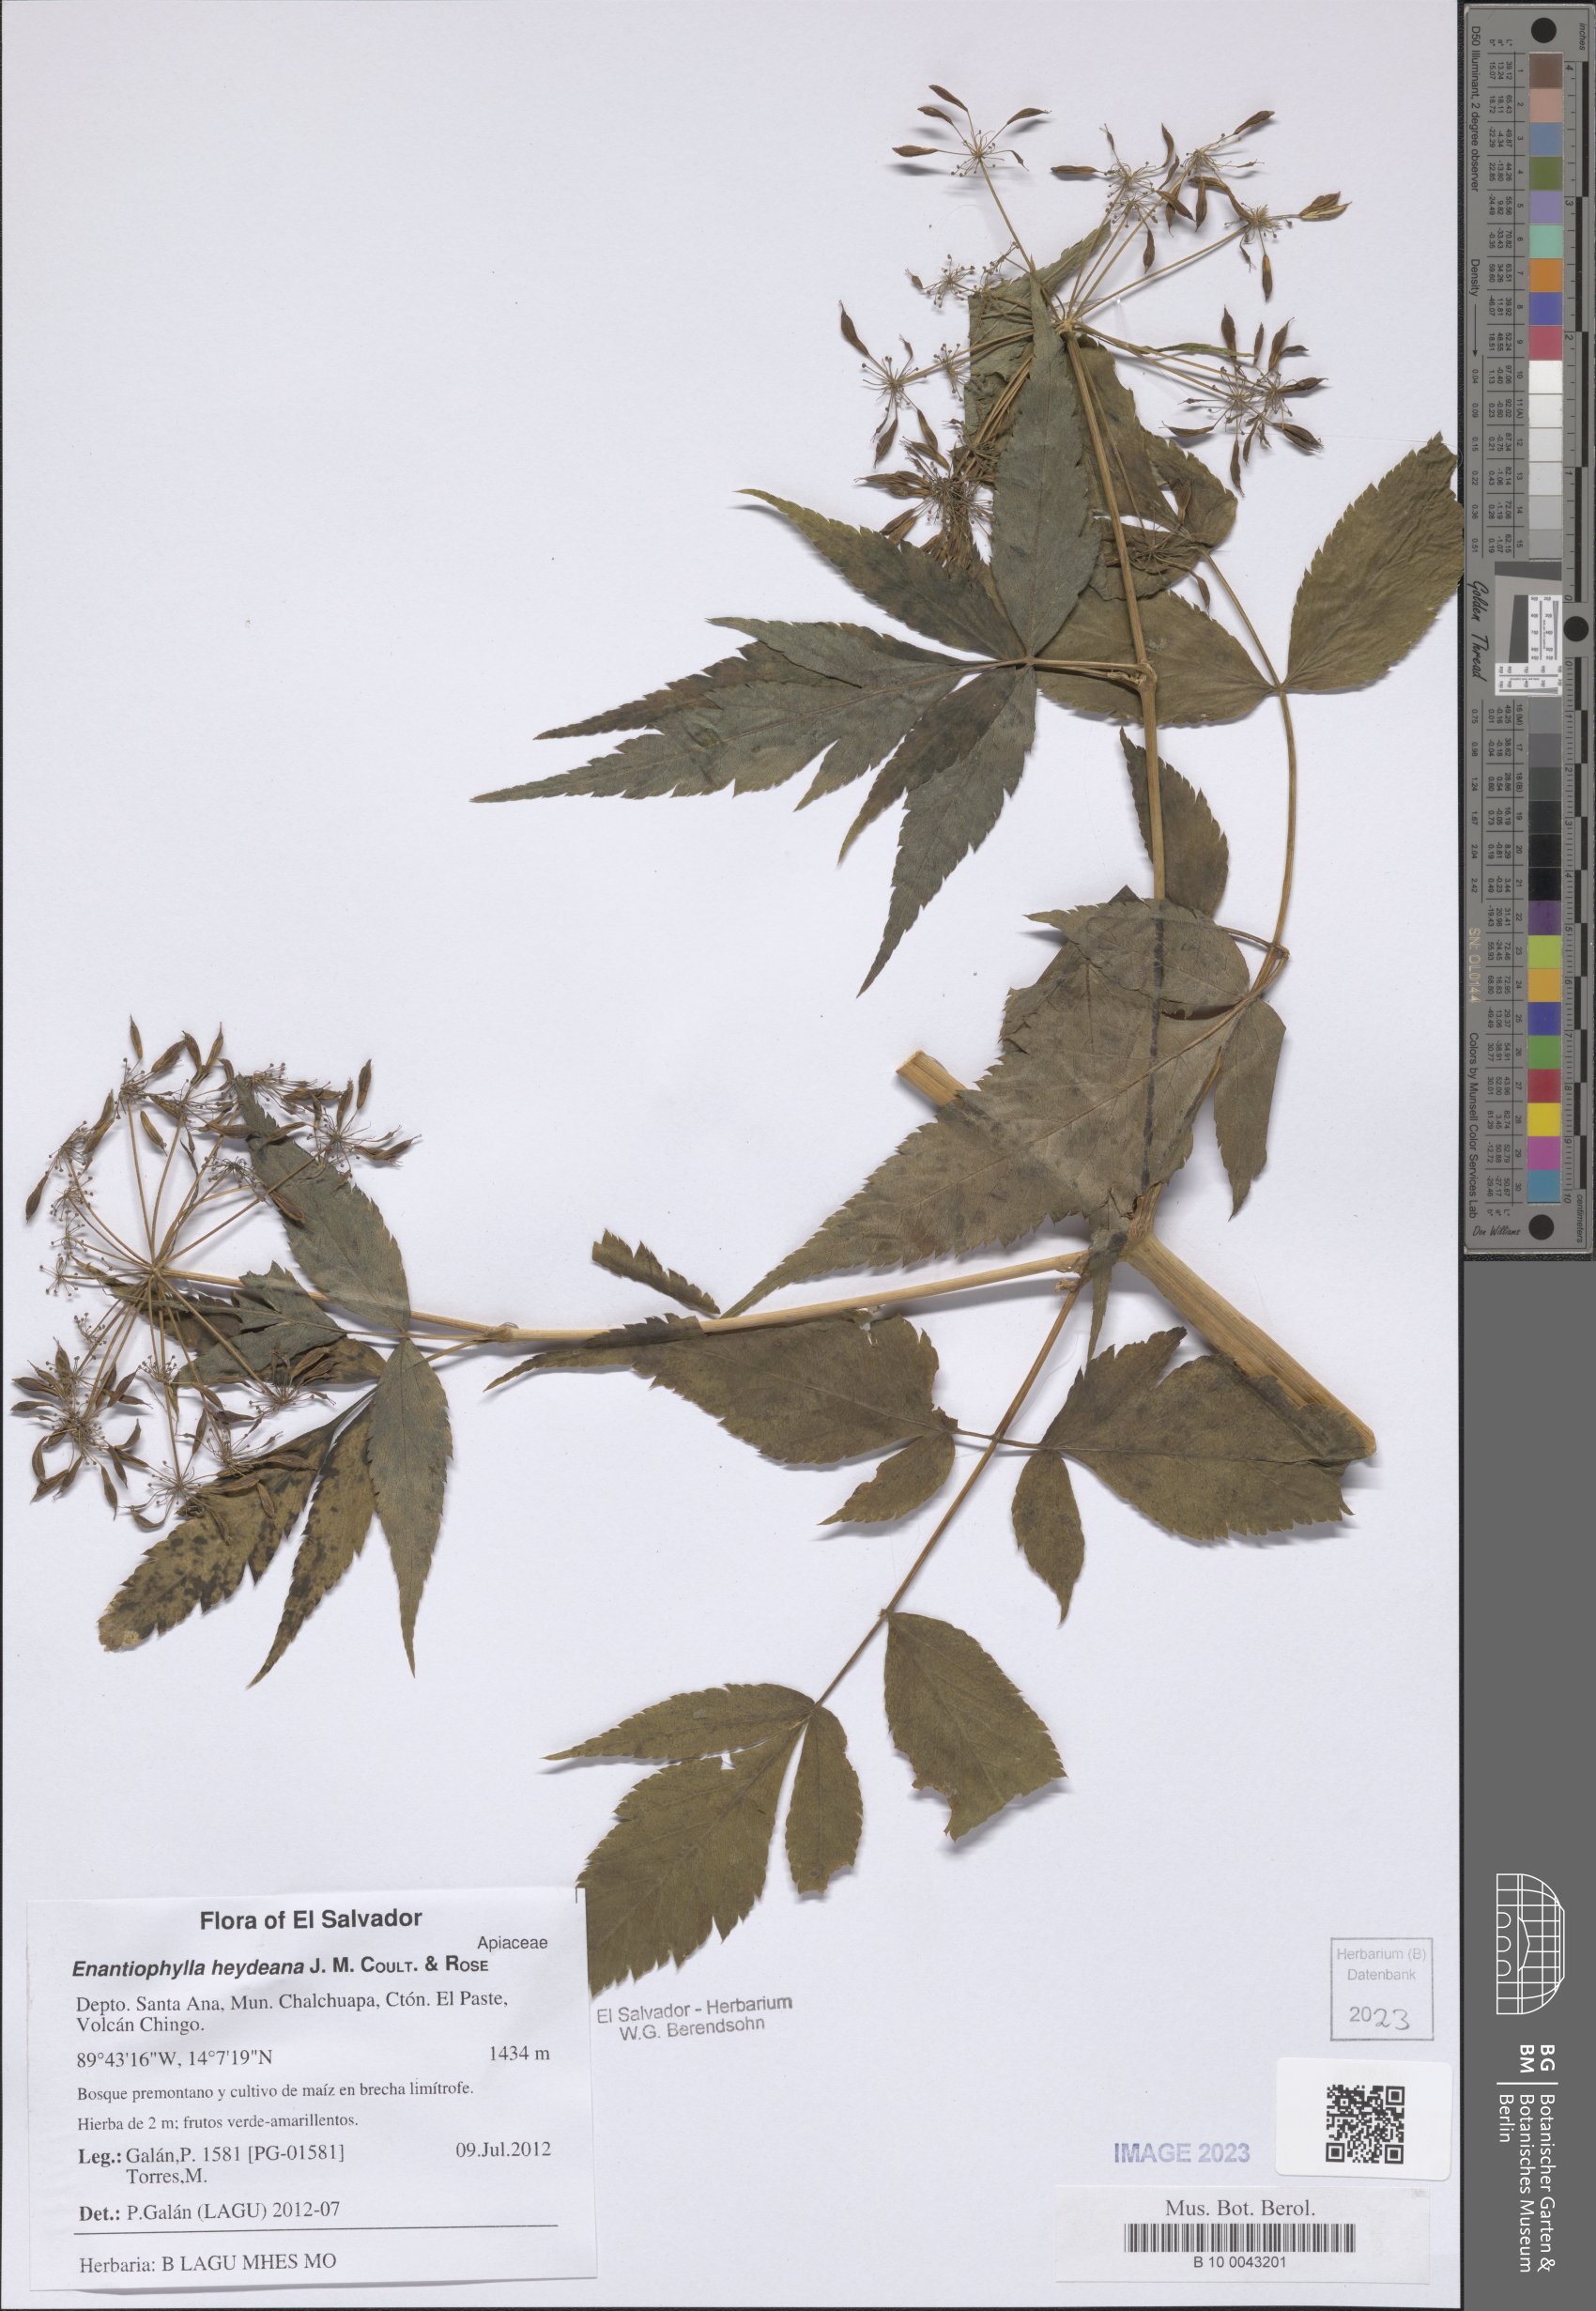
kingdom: Plantae
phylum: Tracheophyta
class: Magnoliopsida
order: Apiales
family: Apiaceae
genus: Enantiophylla
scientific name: Enantiophylla heydeana
